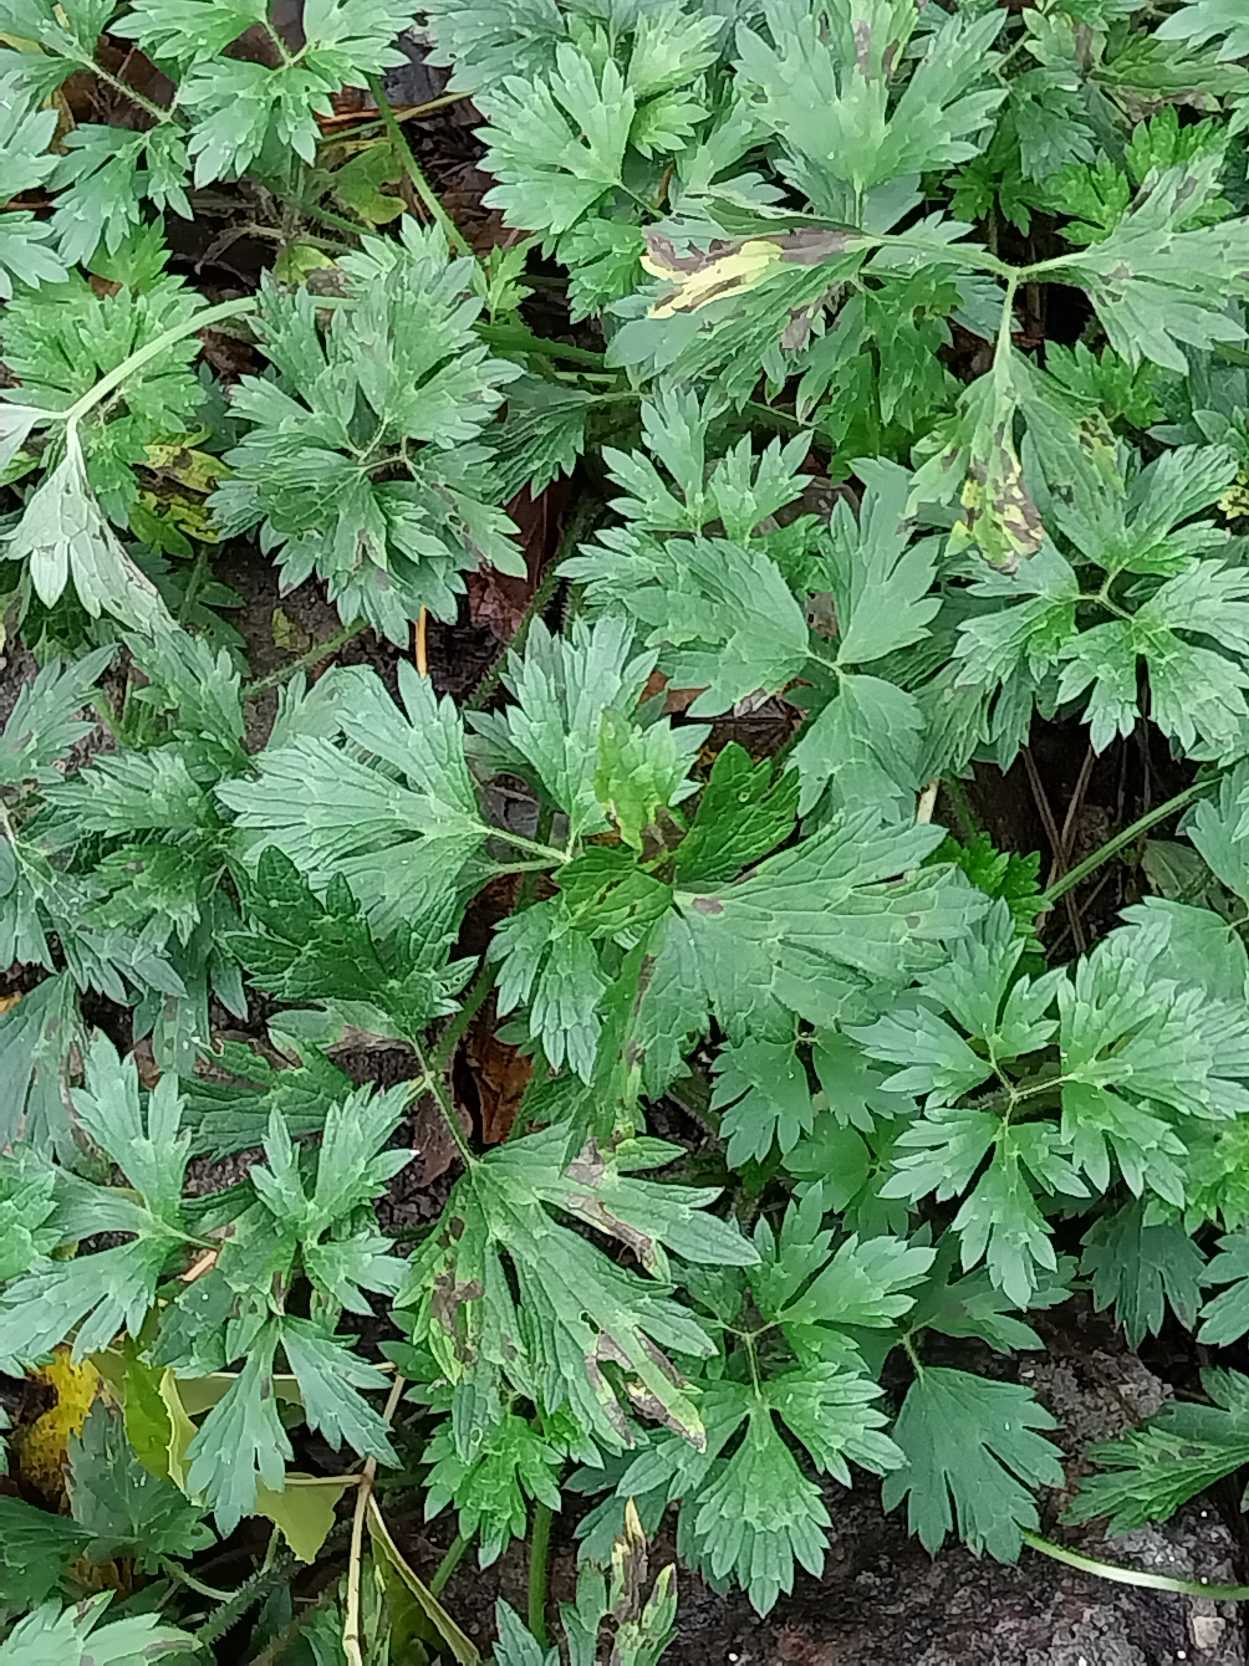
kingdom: Plantae
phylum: Tracheophyta
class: Magnoliopsida
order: Ranunculales
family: Ranunculaceae
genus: Ranunculus
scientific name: Ranunculus repens
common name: Lav ranunkel
